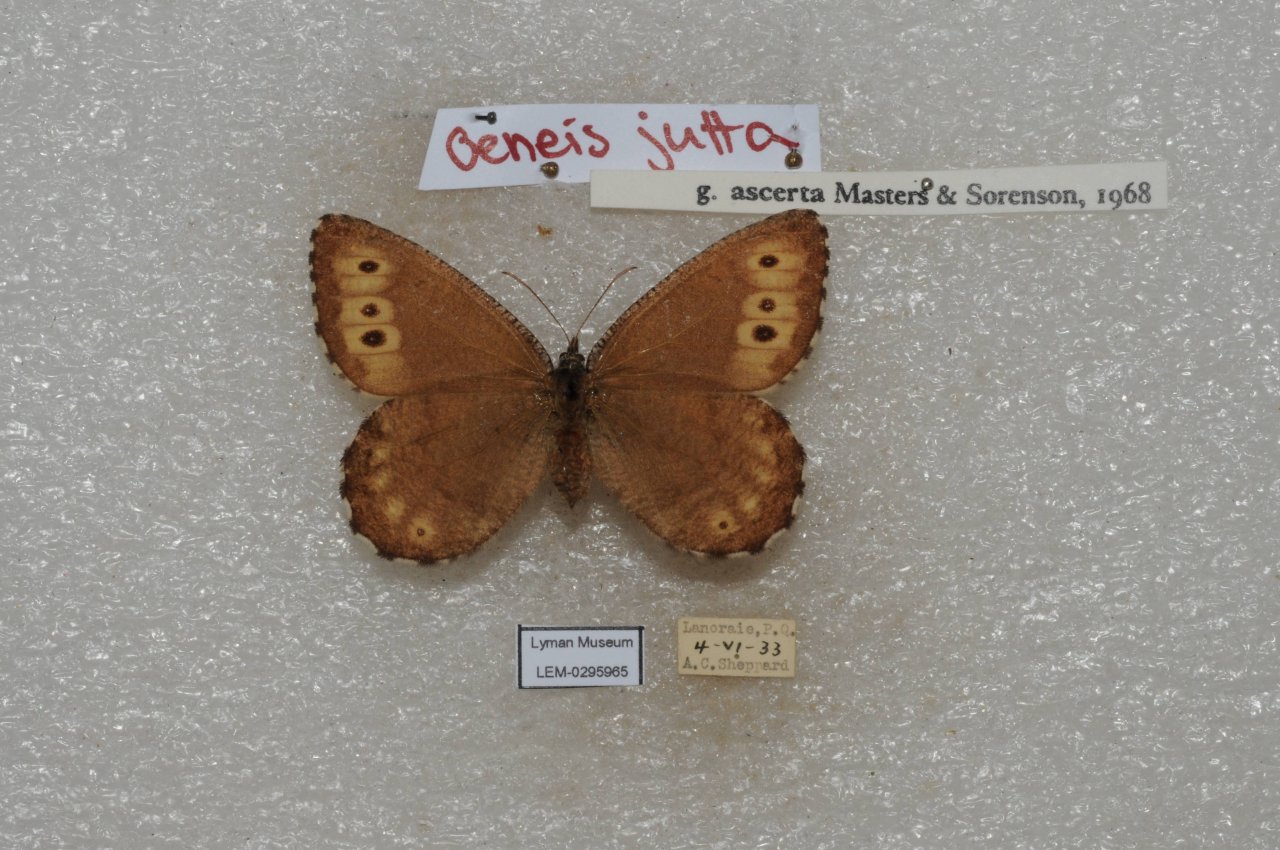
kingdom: Animalia
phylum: Arthropoda
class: Insecta
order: Lepidoptera
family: Nymphalidae
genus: Oeneis
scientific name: Oeneis jutta
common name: Jutta Arctic
